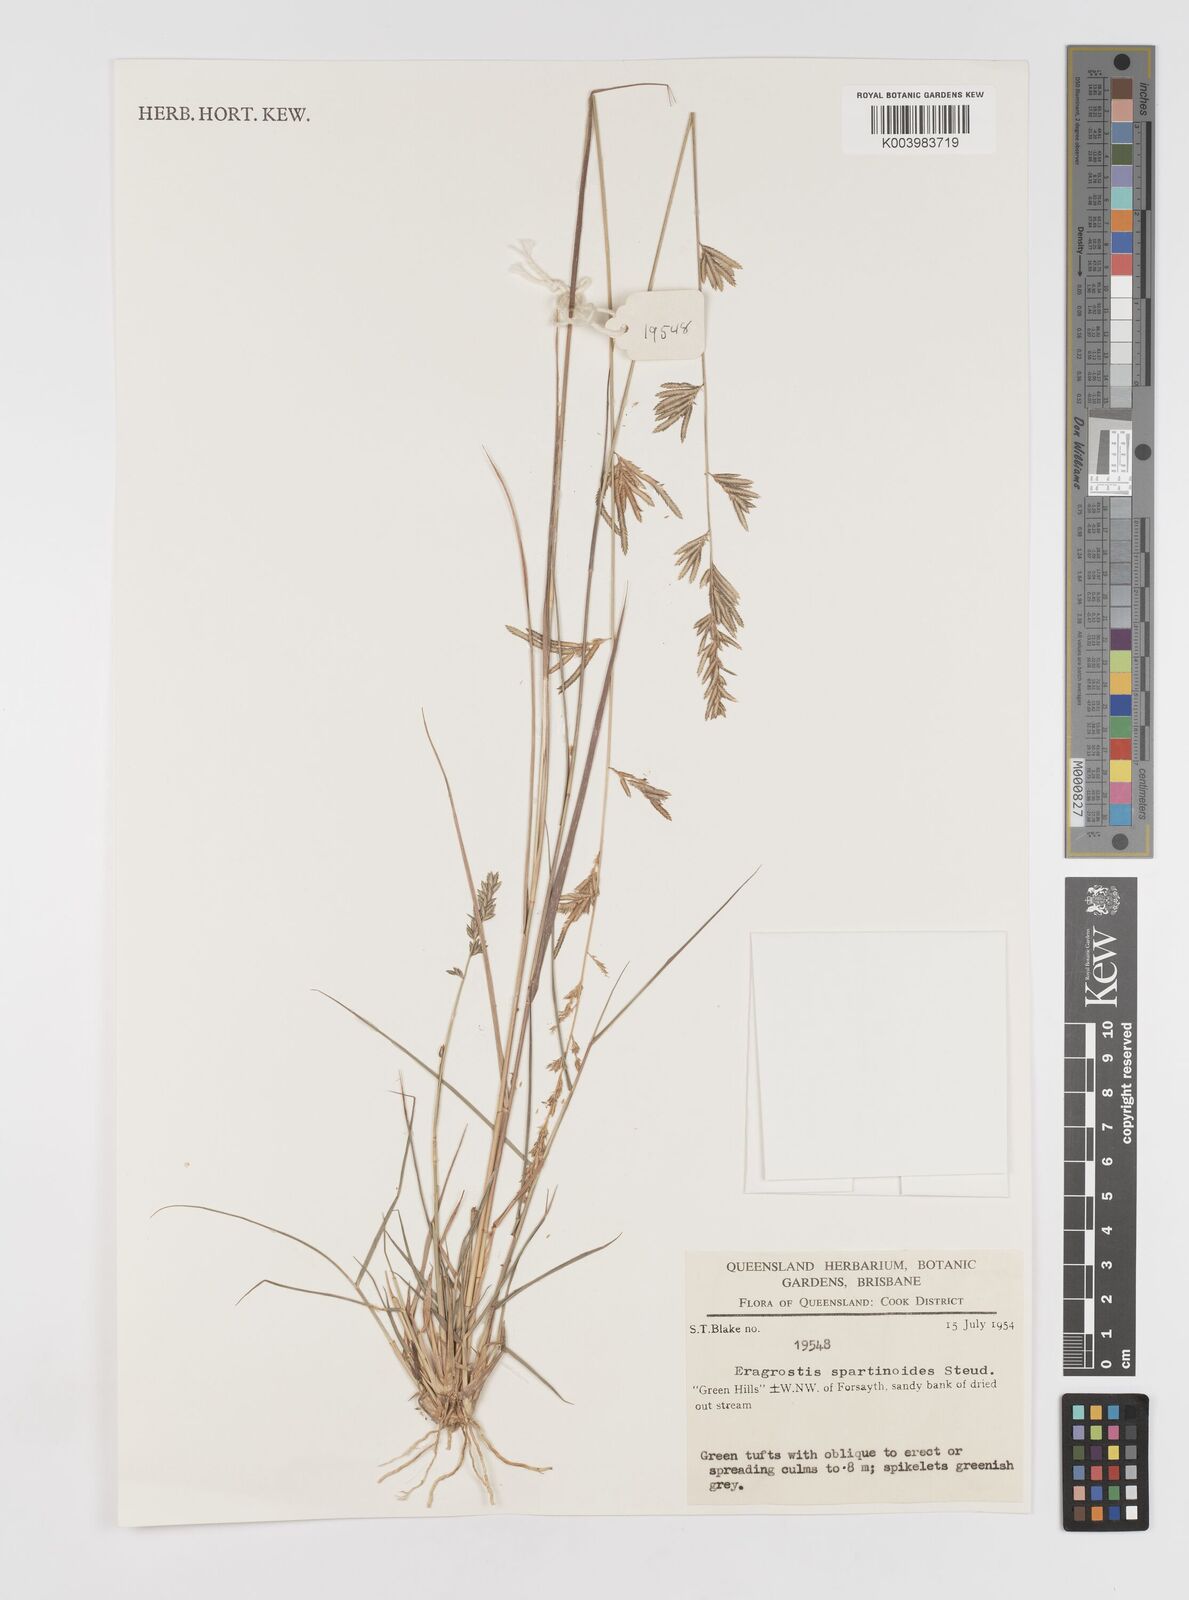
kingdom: Plantae
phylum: Tracheophyta
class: Liliopsida
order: Poales
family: Poaceae
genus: Eragrostis
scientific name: Eragrostis brownii
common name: Lovegrass
